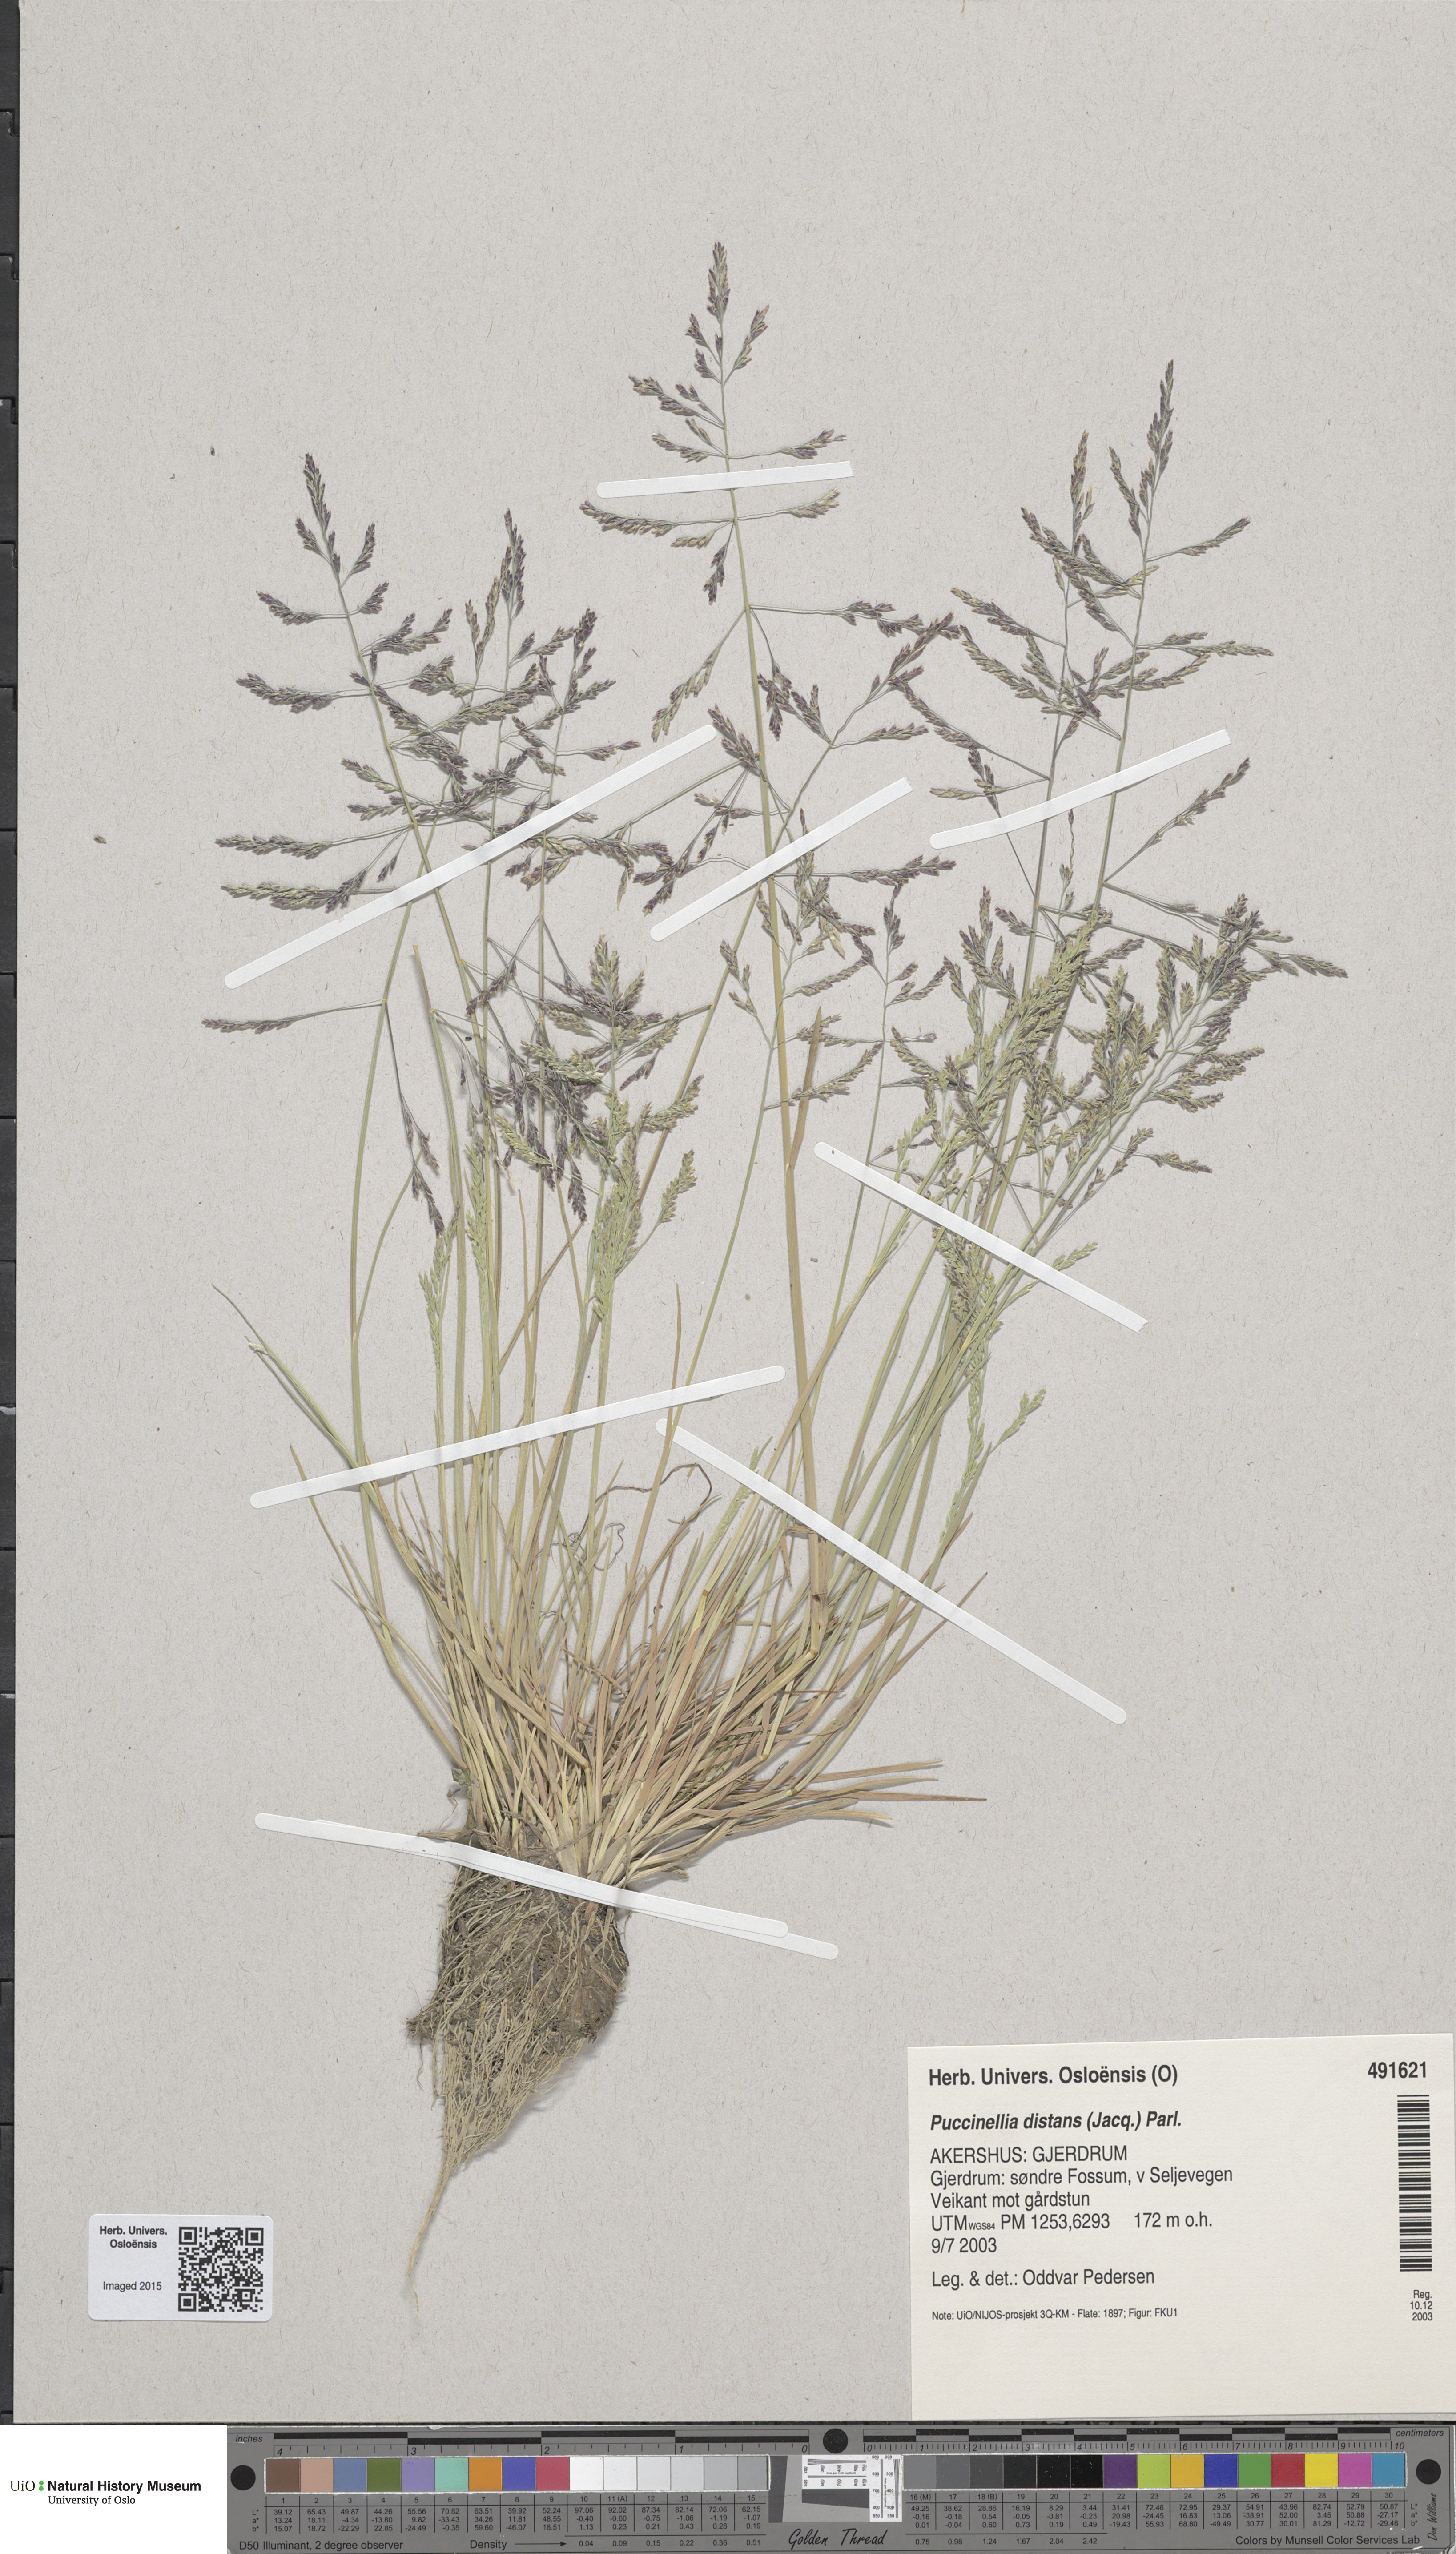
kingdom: Plantae
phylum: Tracheophyta
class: Liliopsida
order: Poales
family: Poaceae
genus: Puccinellia
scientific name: Puccinellia distans
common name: Weeping alkaligrass
